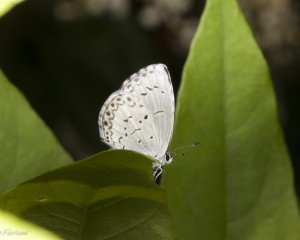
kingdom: Animalia
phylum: Arthropoda
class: Insecta
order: Lepidoptera
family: Lycaenidae
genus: Cyaniris
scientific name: Cyaniris neglecta
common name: Summer Azure
